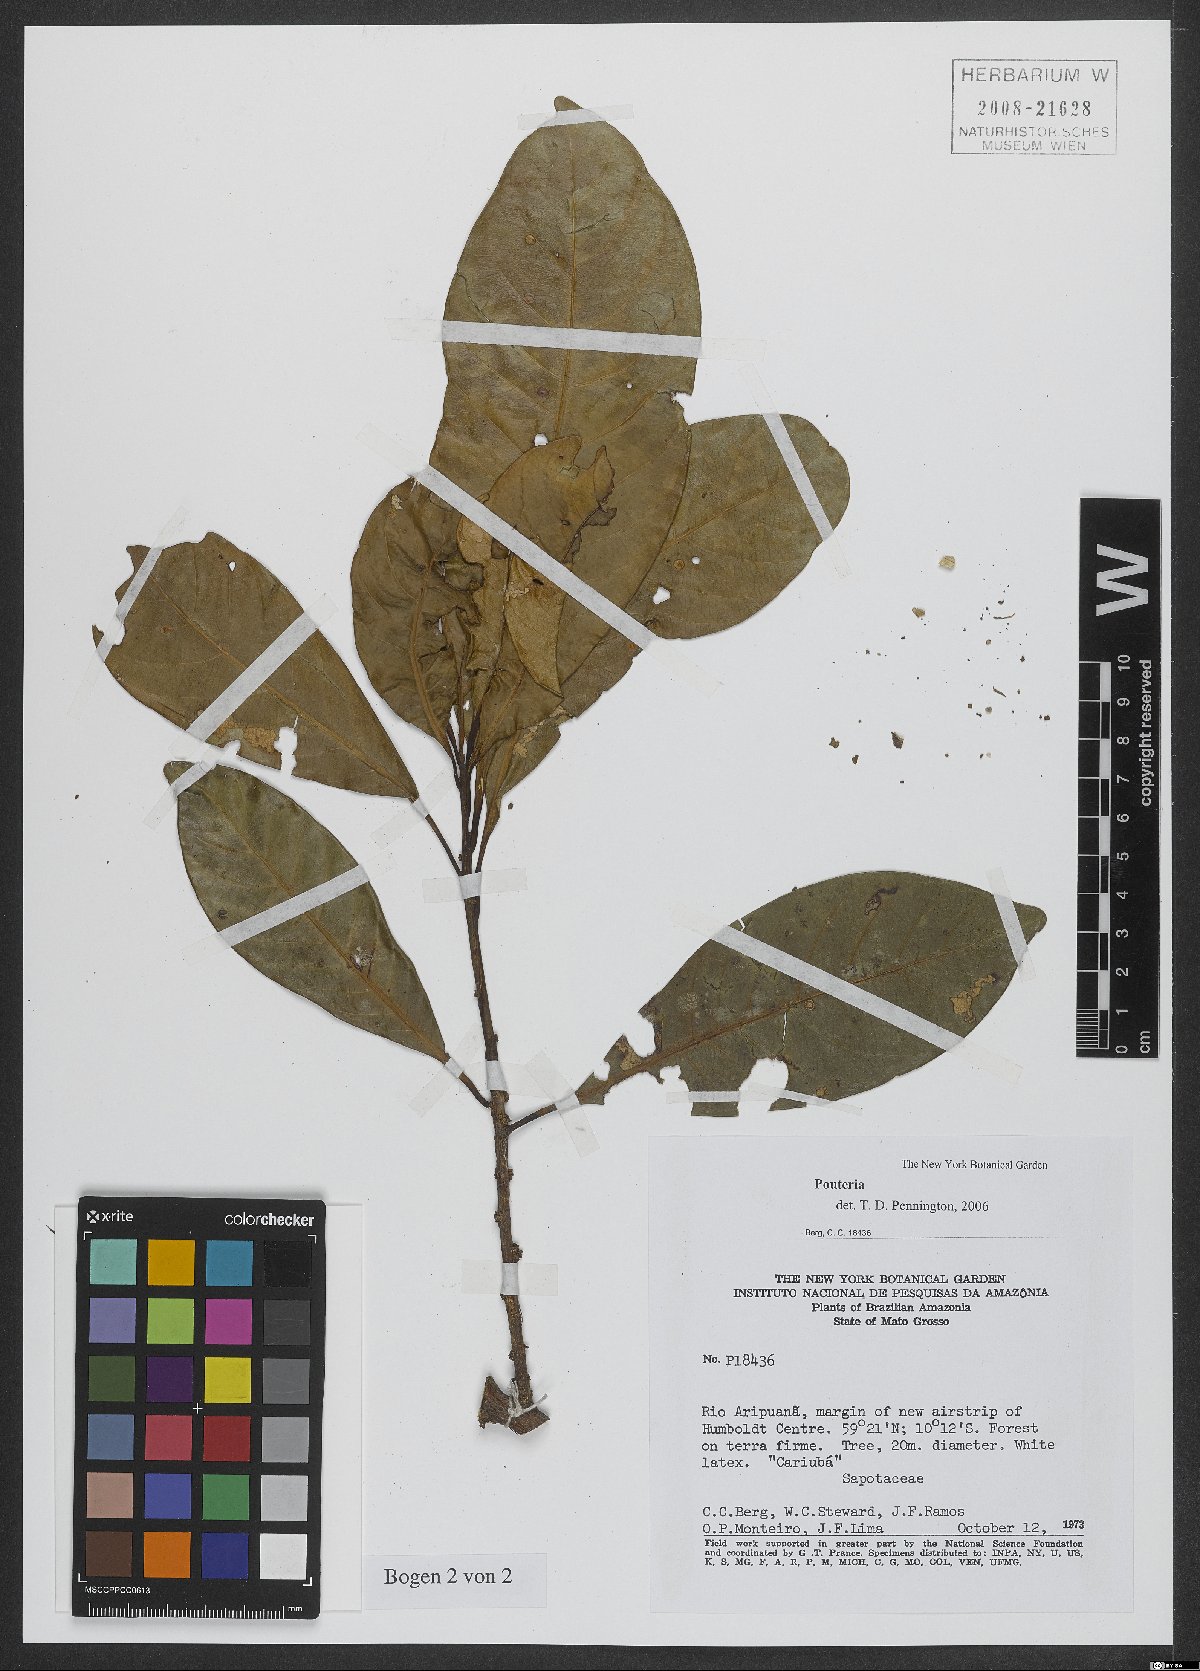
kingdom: Plantae
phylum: Tracheophyta
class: Magnoliopsida
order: Ericales
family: Sapotaceae
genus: Pouteria
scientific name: Pouteria
